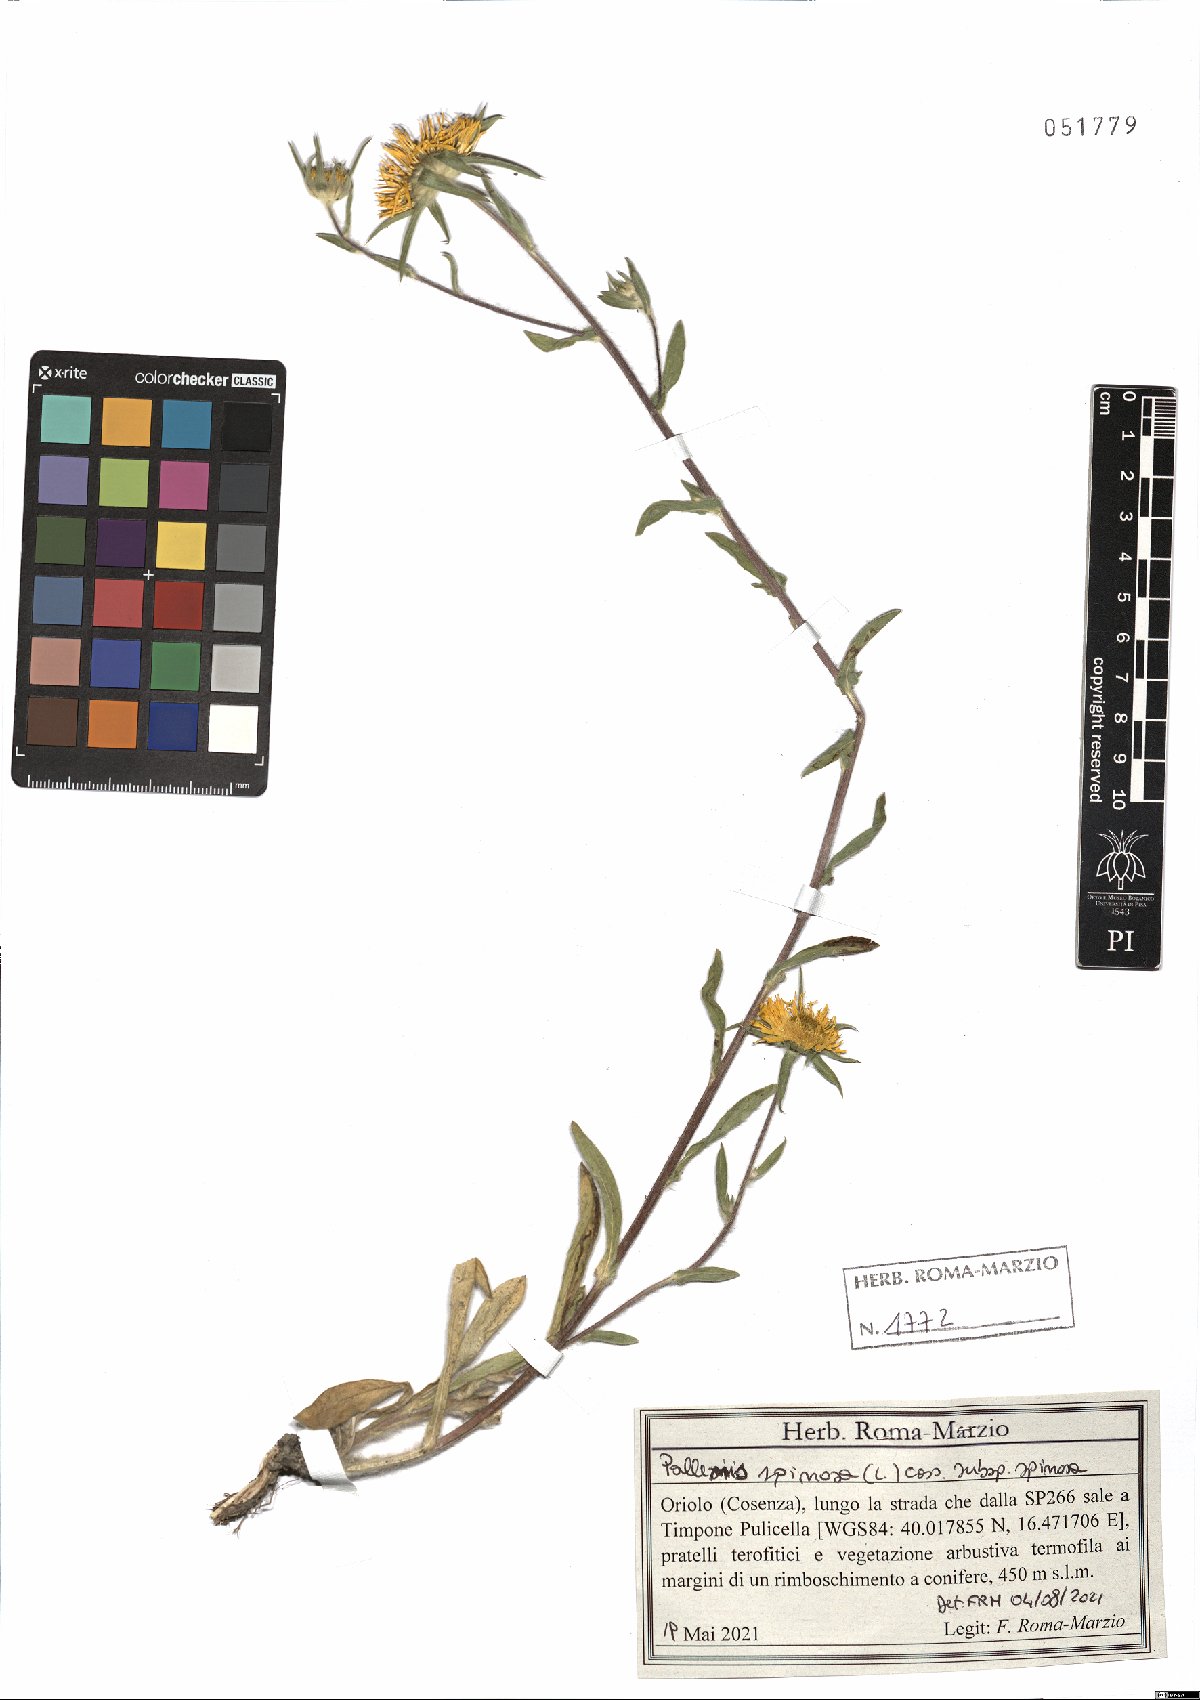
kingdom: Plantae
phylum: Tracheophyta
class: Magnoliopsida
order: Asterales
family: Asteraceae
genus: Pallenis
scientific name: Pallenis spinosa
